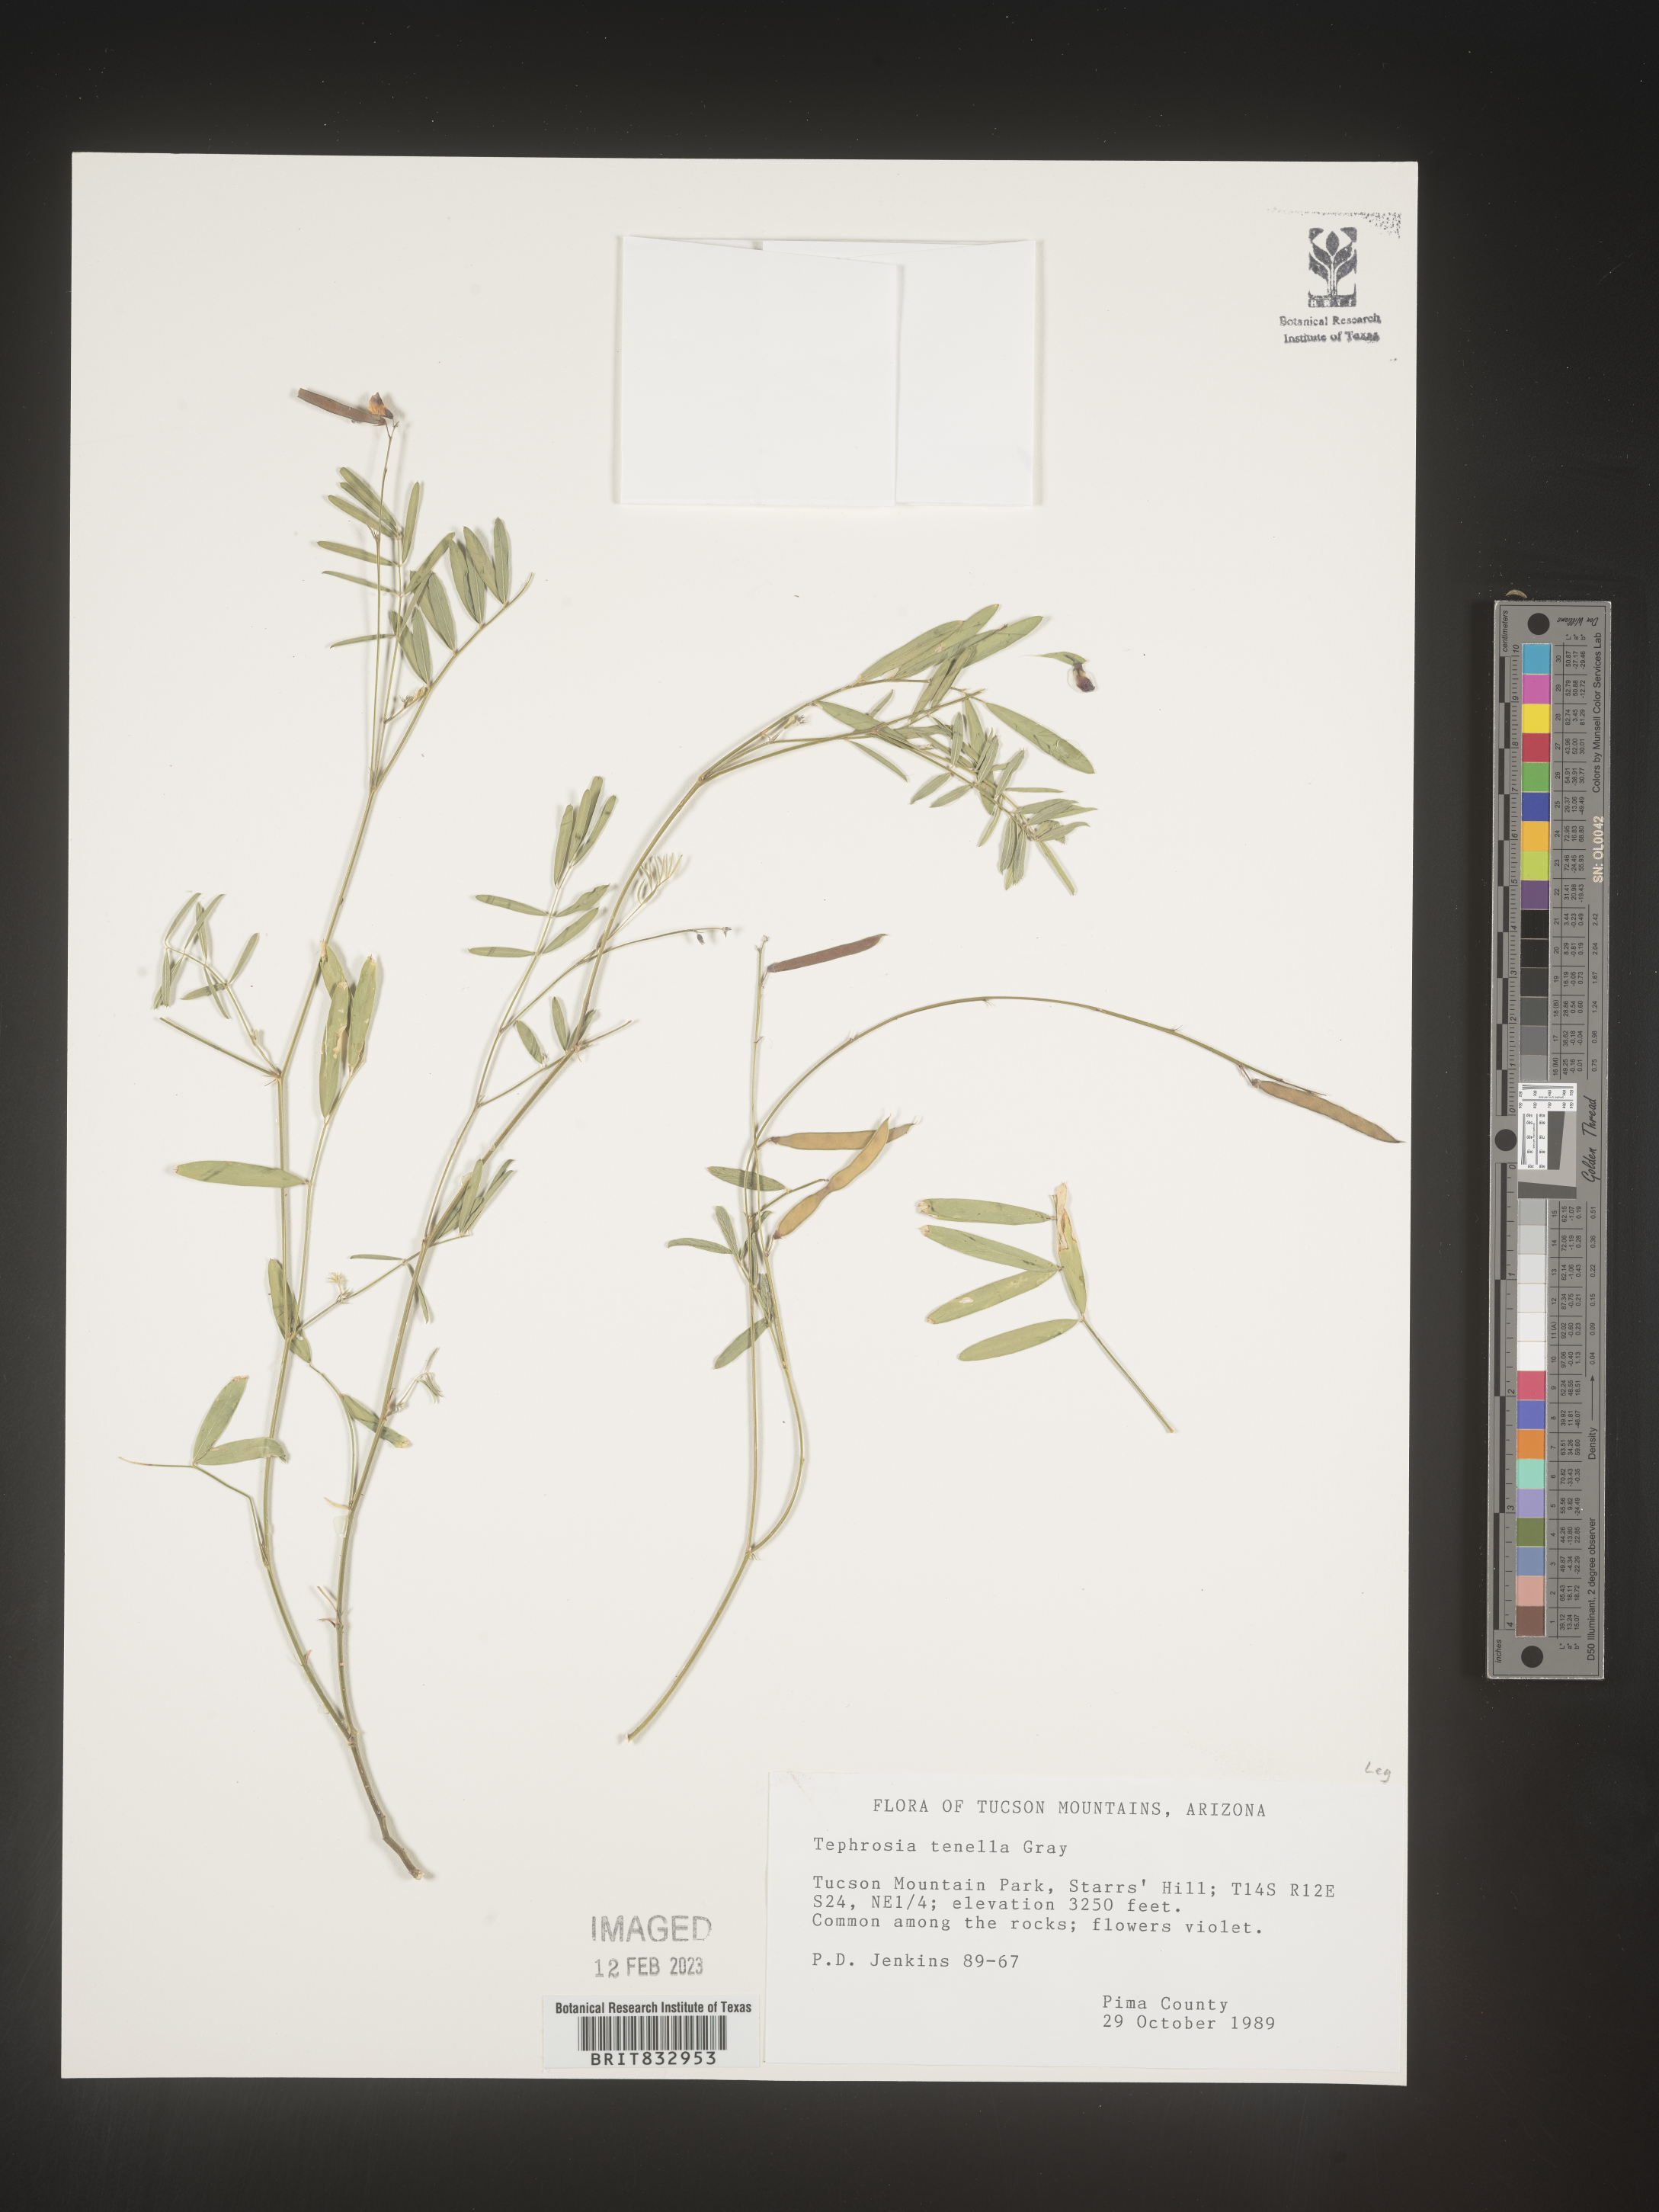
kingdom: Plantae
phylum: Tracheophyta
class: Magnoliopsida
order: Fabales
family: Fabaceae
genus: Tephrosia
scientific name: Tephrosia domingensis
